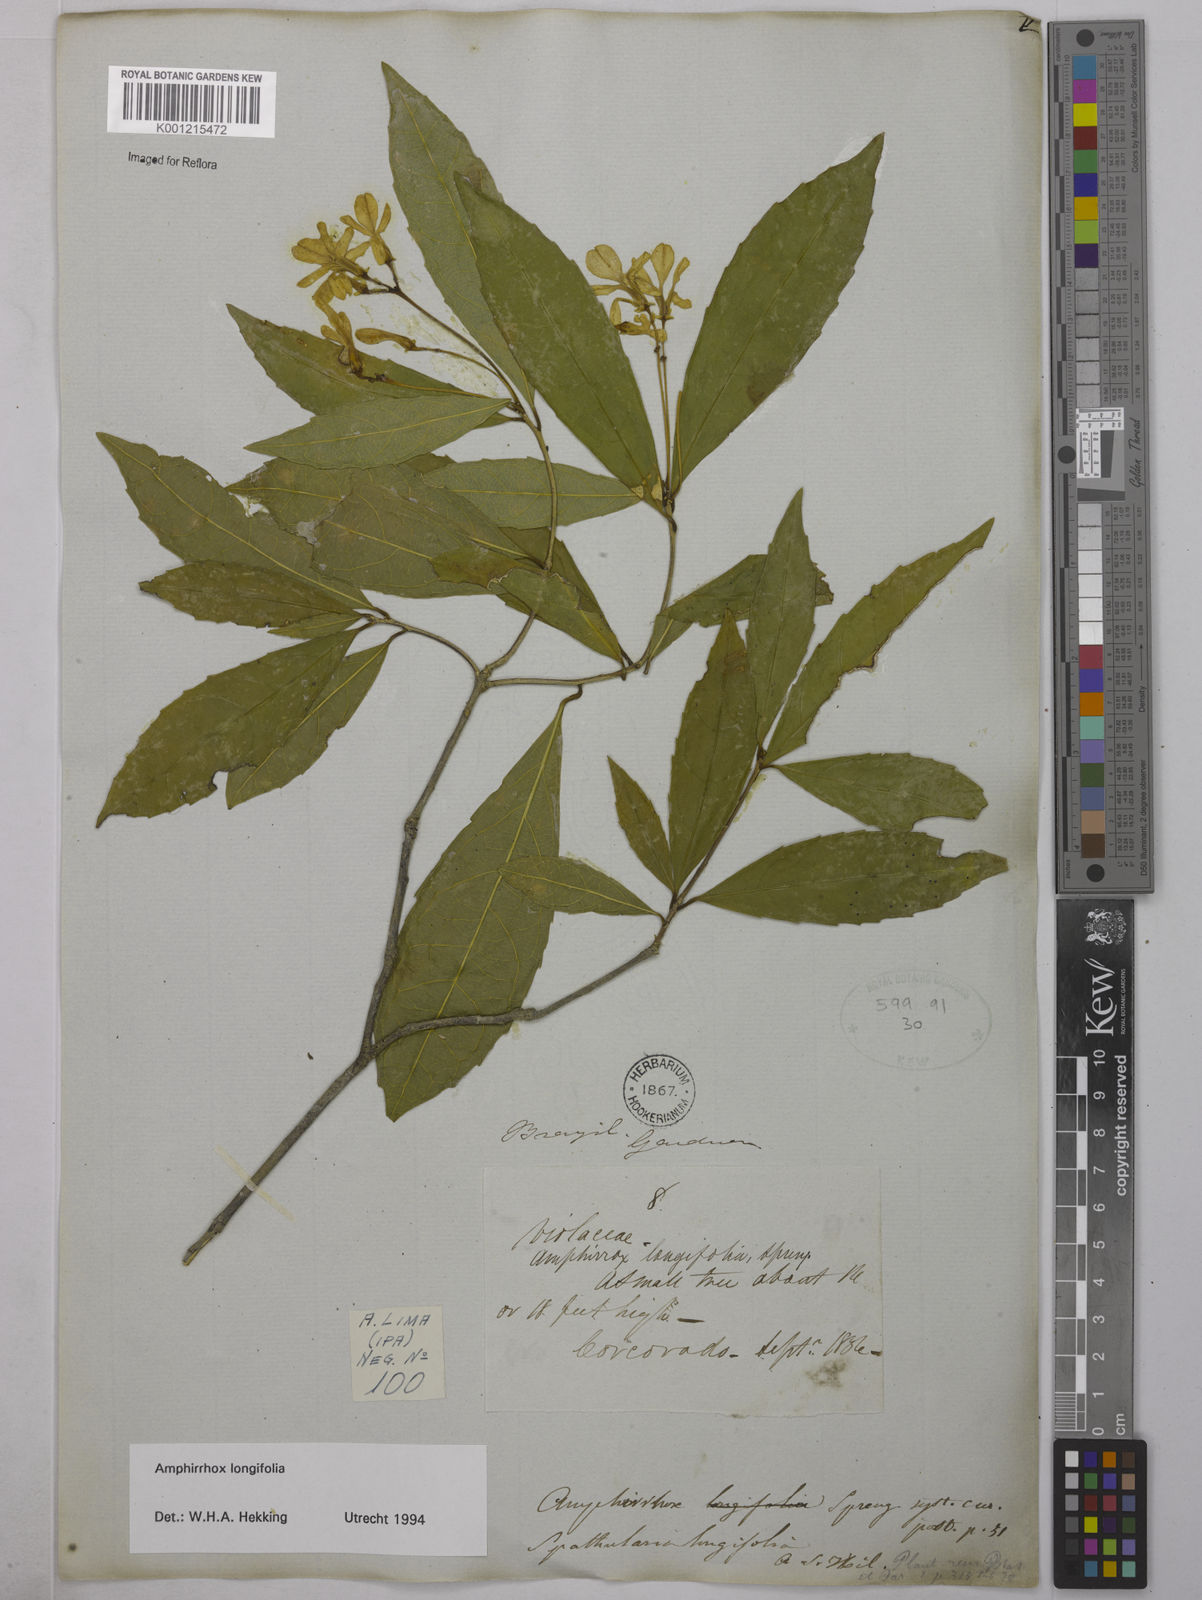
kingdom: Plantae
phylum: Tracheophyta
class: Magnoliopsida
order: Malpighiales
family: Violaceae
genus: Amphirrhox
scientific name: Amphirrhox longifolia
